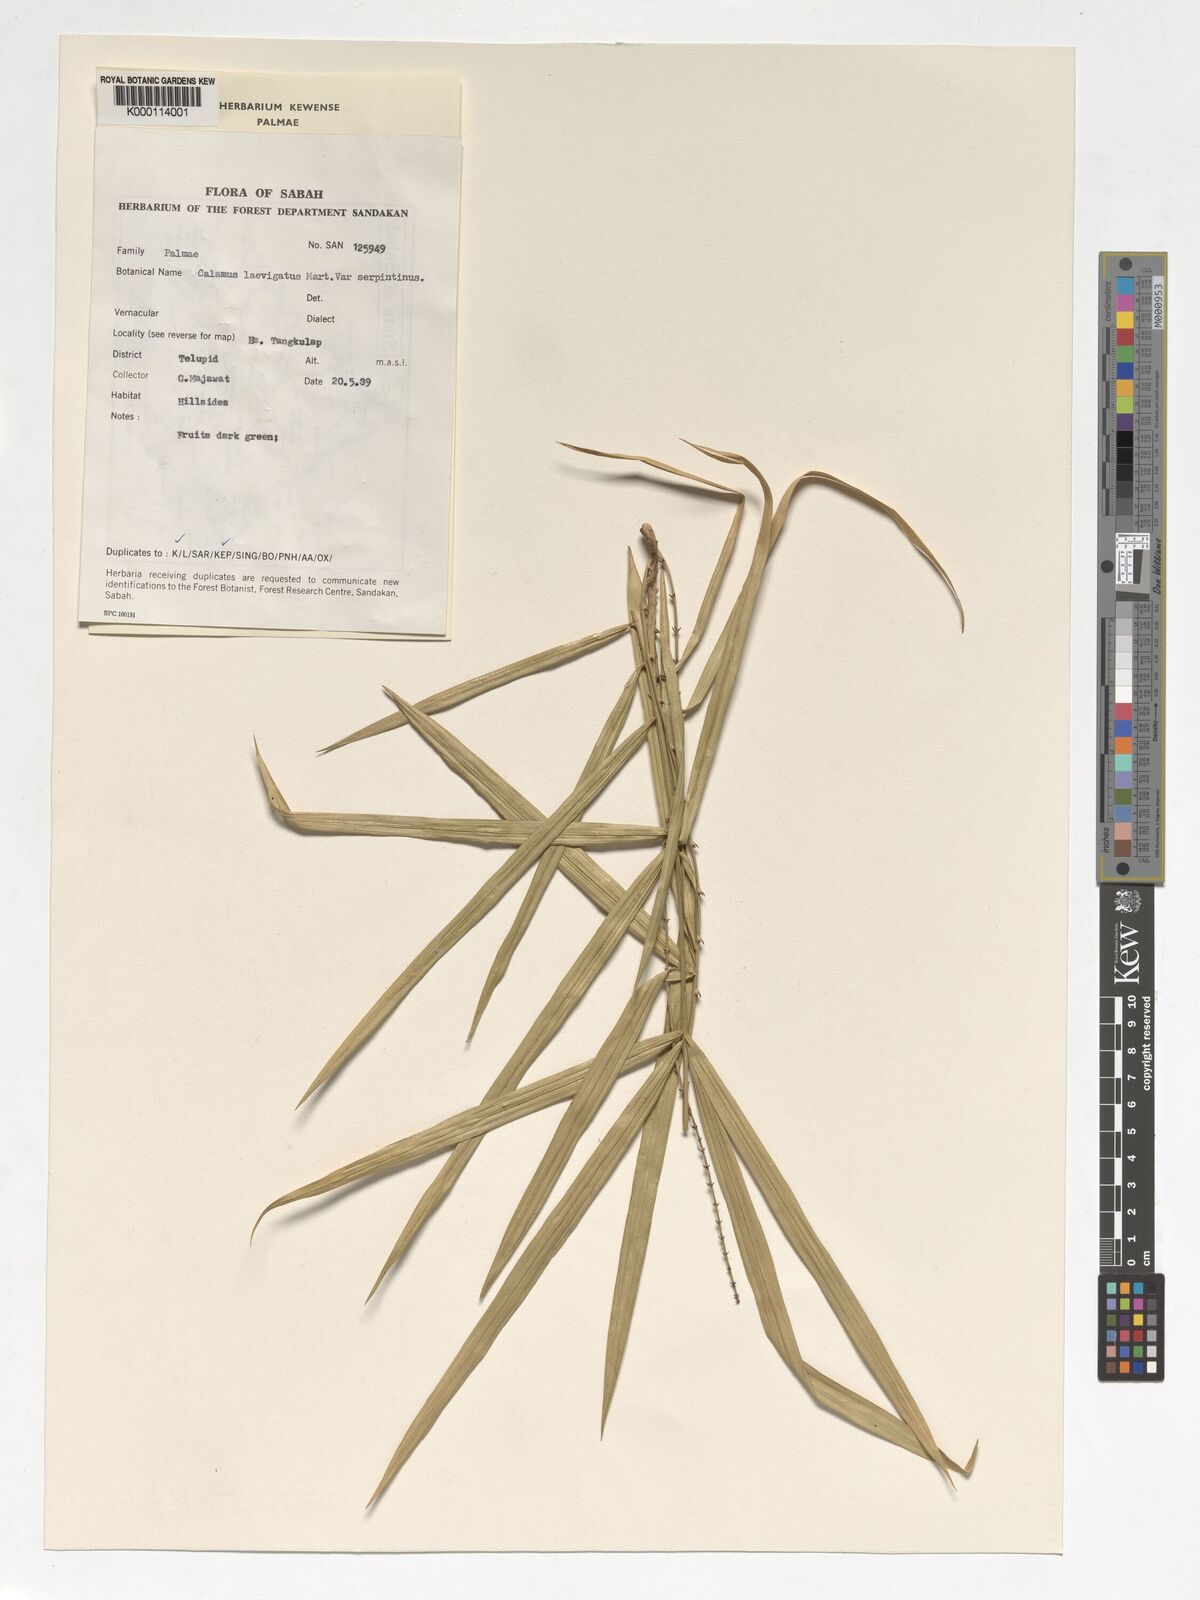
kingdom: Plantae
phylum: Tracheophyta
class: Liliopsida
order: Arecales
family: Arecaceae
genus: Calamus
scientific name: Calamus plicatus
